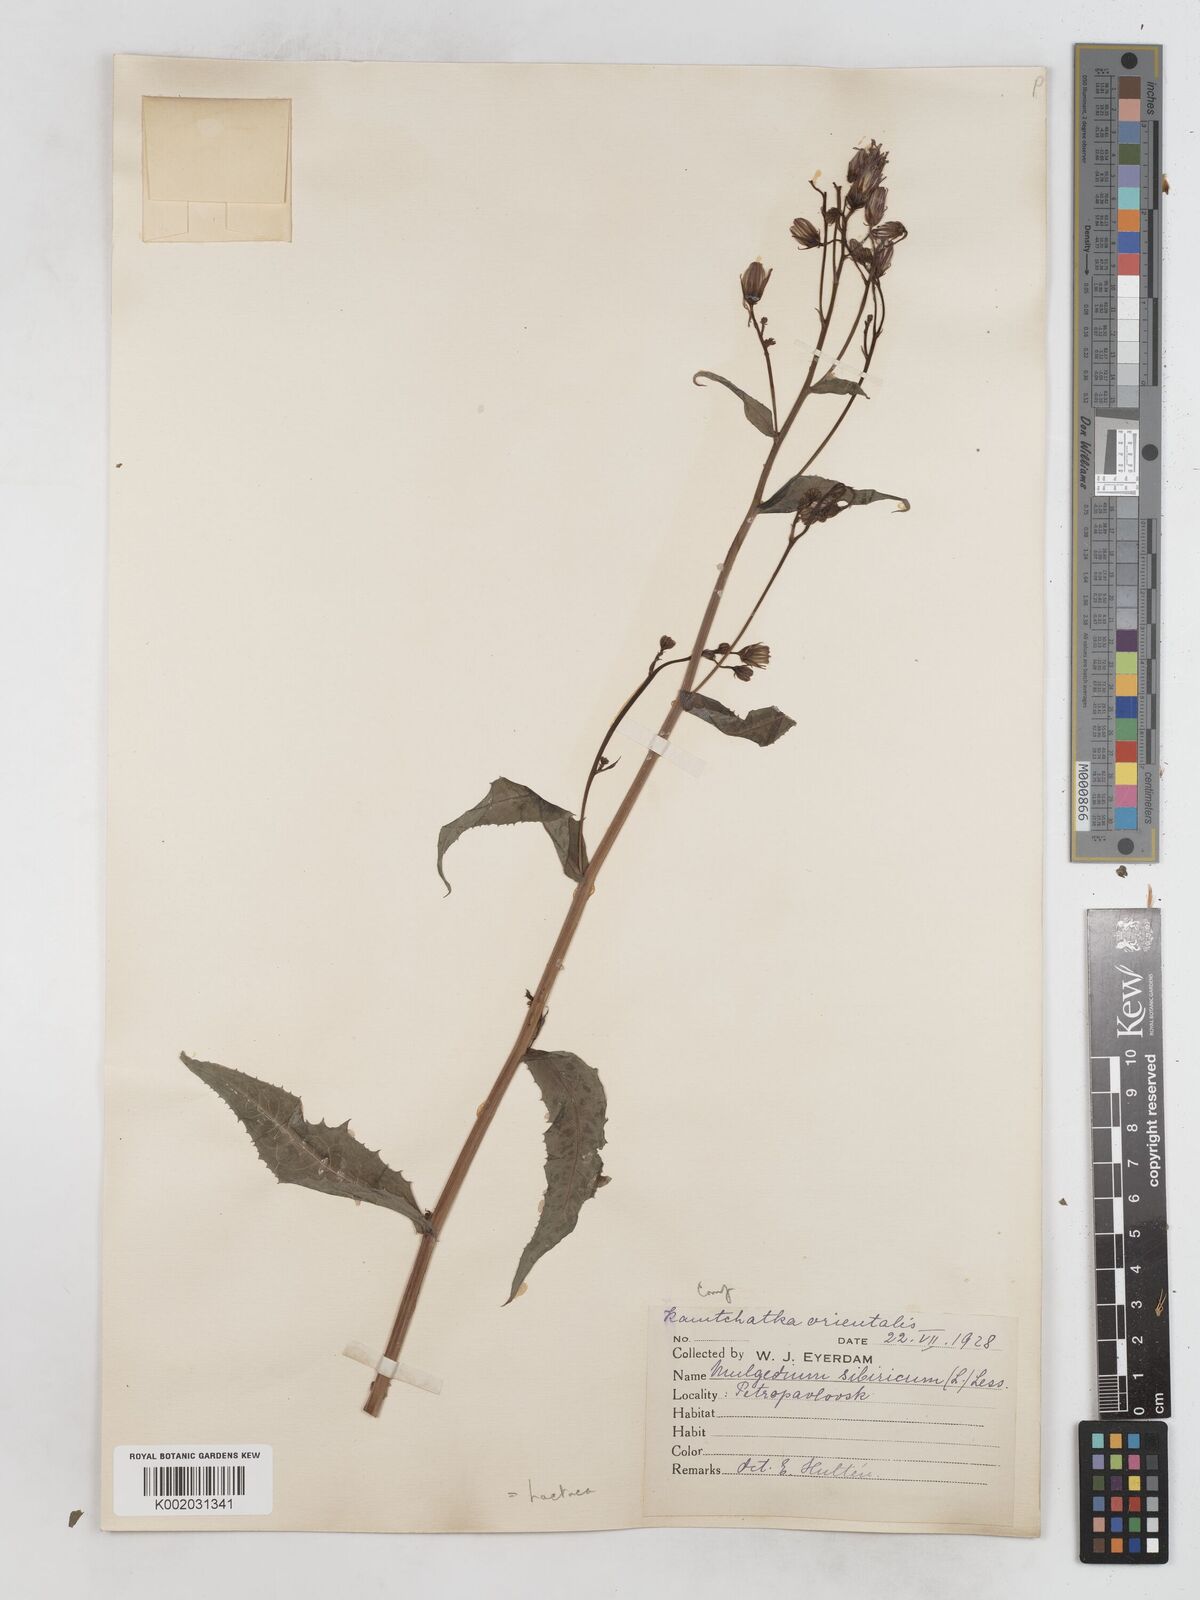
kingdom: Plantae
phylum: Tracheophyta
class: Magnoliopsida
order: Asterales
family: Asteraceae
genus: Lactuca
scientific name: Lactuca sibirica
